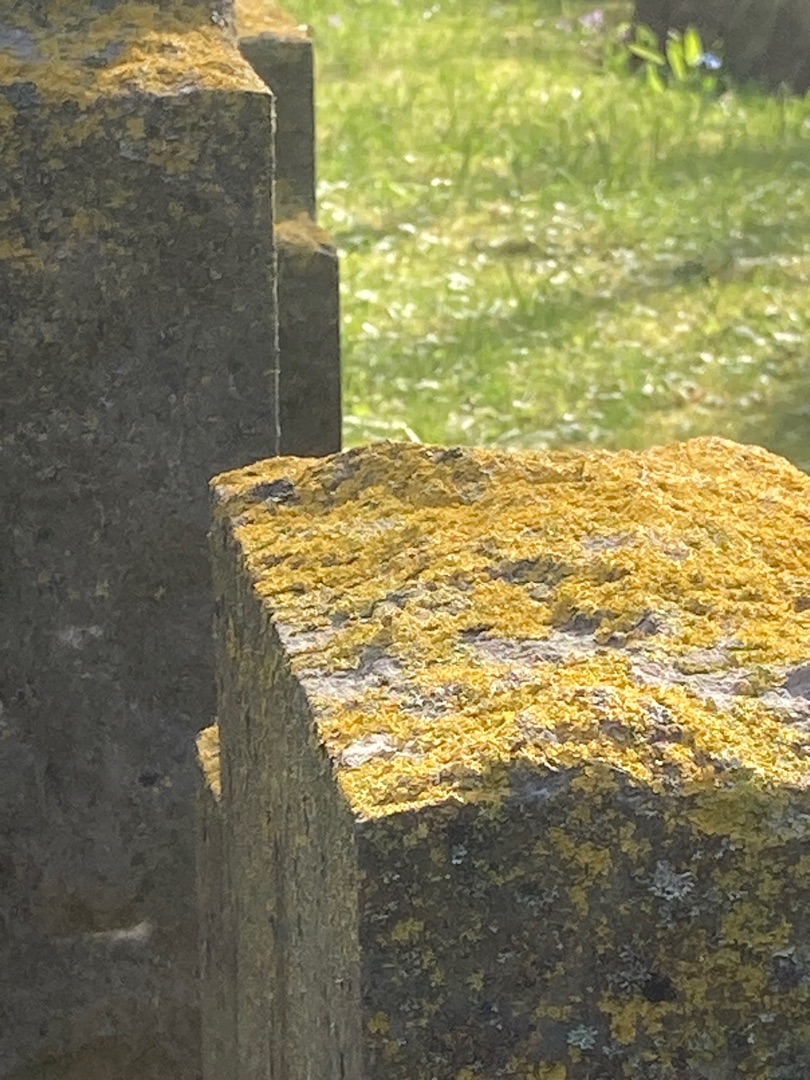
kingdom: Fungi
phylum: Ascomycota
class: Lecanoromycetes
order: Teloschistales
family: Teloschistaceae
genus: Xanthoria
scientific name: Xanthoria parietina
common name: Almindelig væggelav
